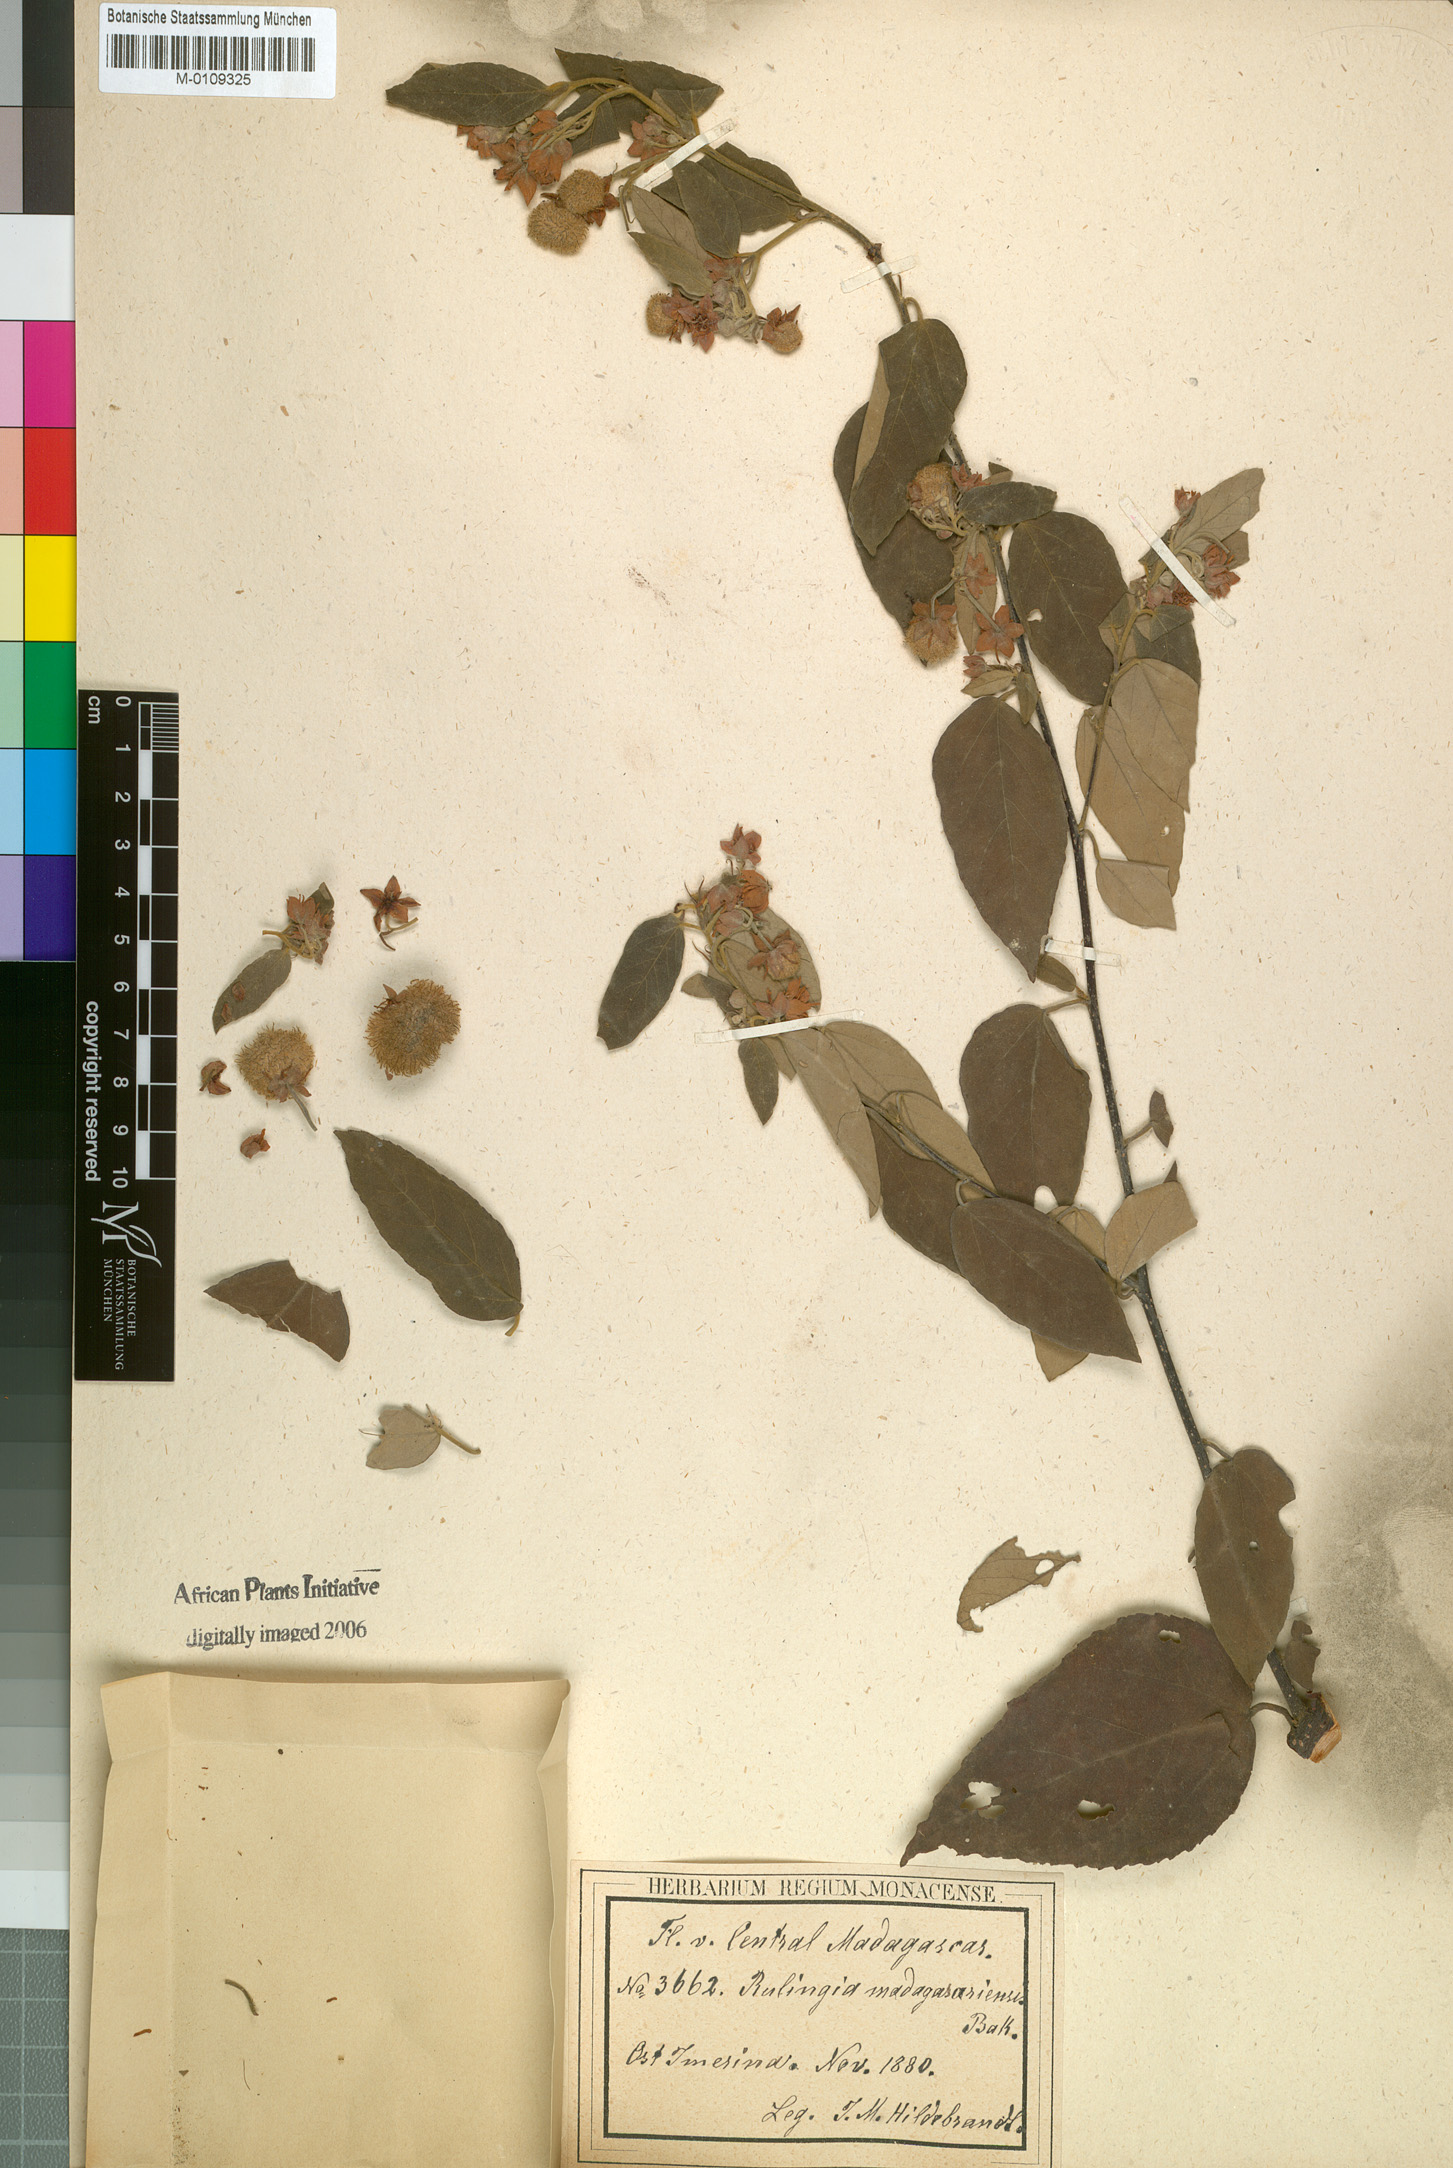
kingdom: Plantae
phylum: Tracheophyta
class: Magnoliopsida
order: Malvales
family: Malvaceae
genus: Commersonia
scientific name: Commersonia madagascariensis
